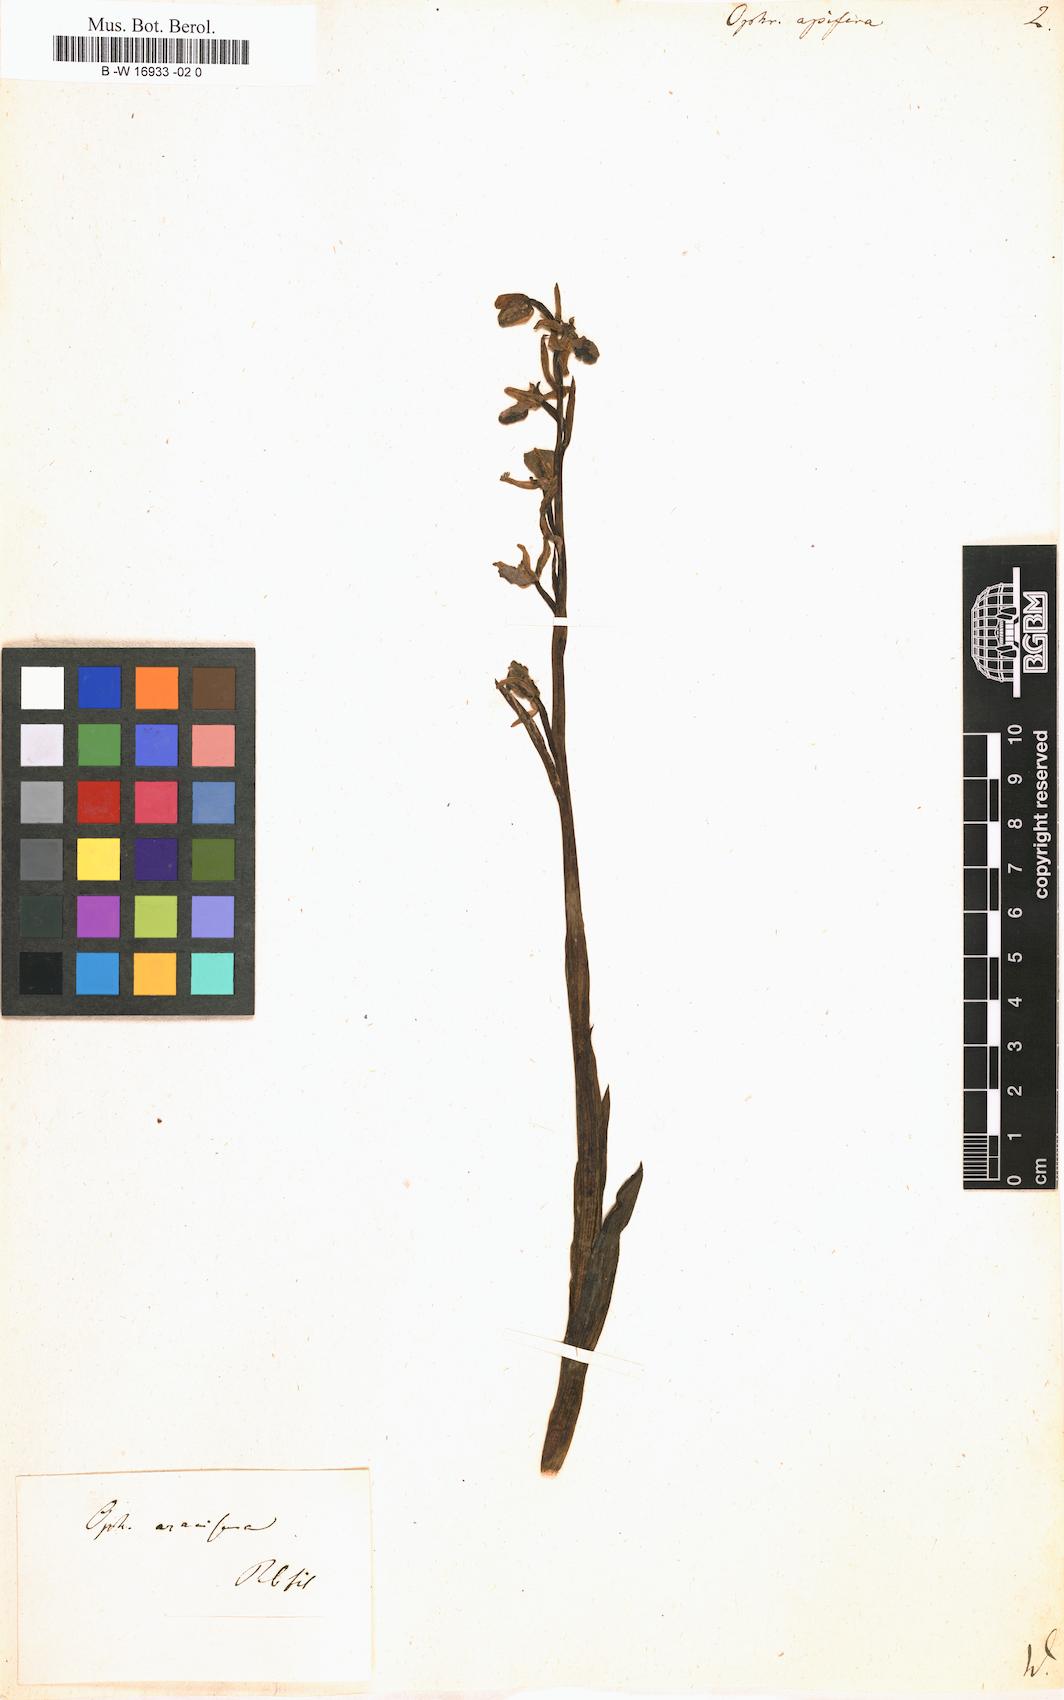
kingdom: Plantae
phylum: Tracheophyta
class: Liliopsida
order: Asparagales
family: Orchidaceae
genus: Ophrys
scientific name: Ophrys apifera
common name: Bee orchid
